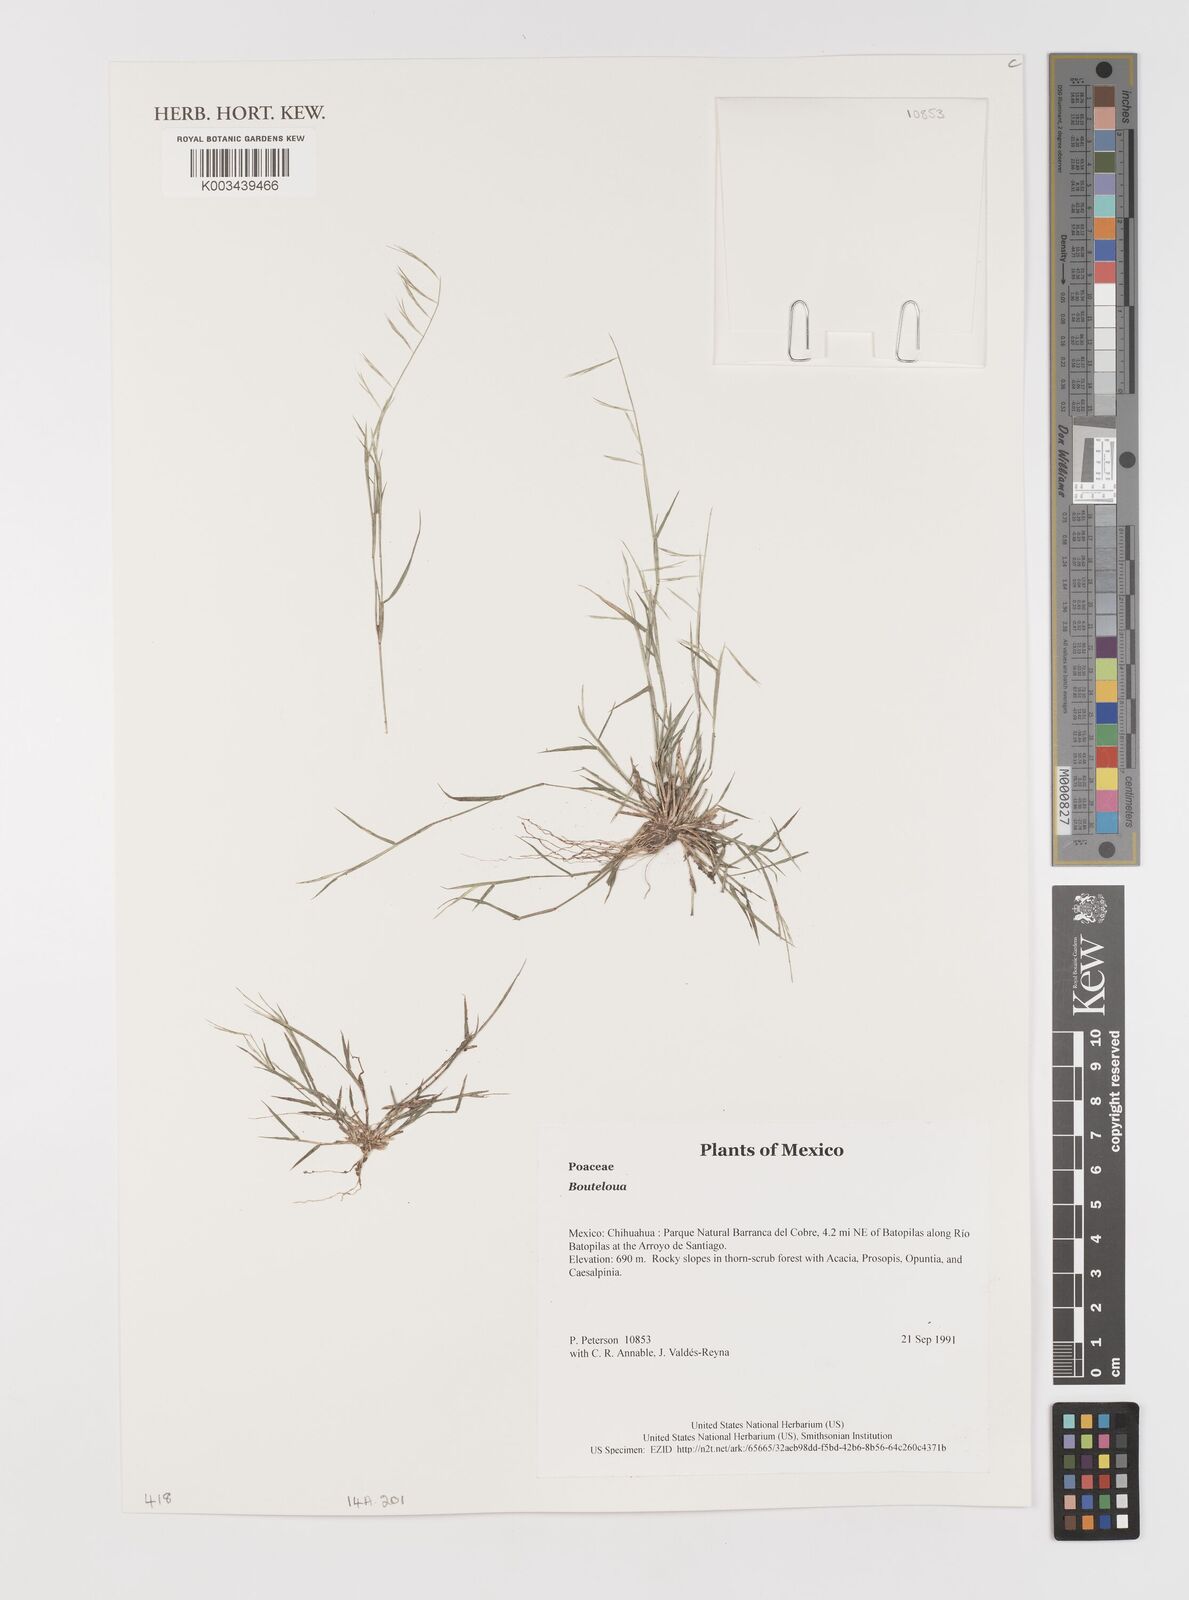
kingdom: Plantae
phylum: Tracheophyta
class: Liliopsida
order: Poales
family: Poaceae
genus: Bouteloua
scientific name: Bouteloua
